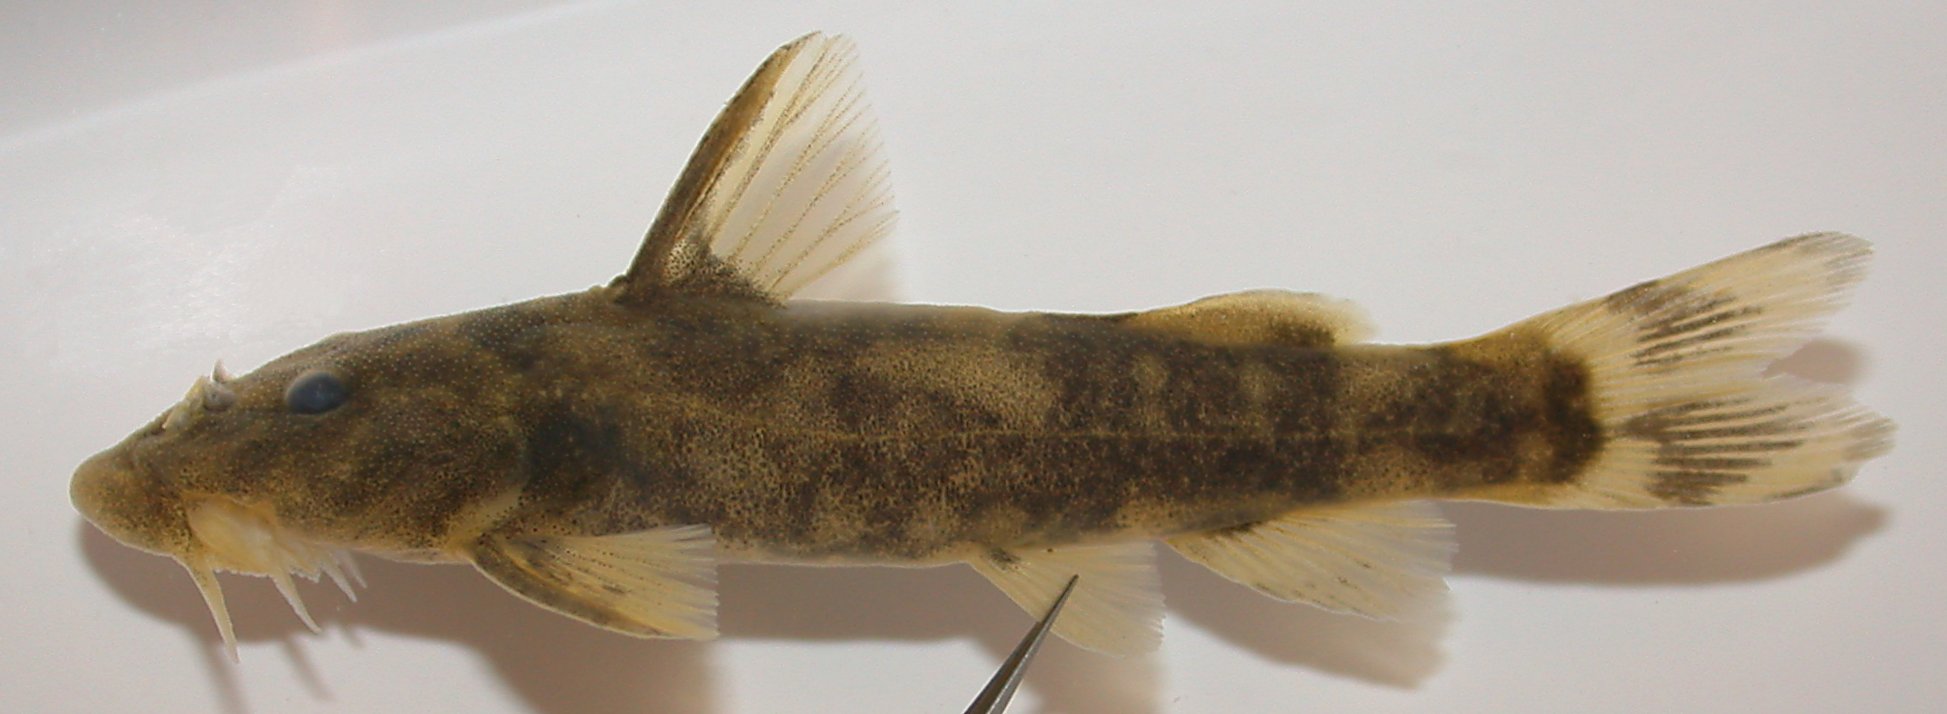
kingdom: Animalia
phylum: Chordata
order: Siluriformes
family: Mochokidae
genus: Chiloglanis
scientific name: Chiloglanis paratus
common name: Sawfin catlet
